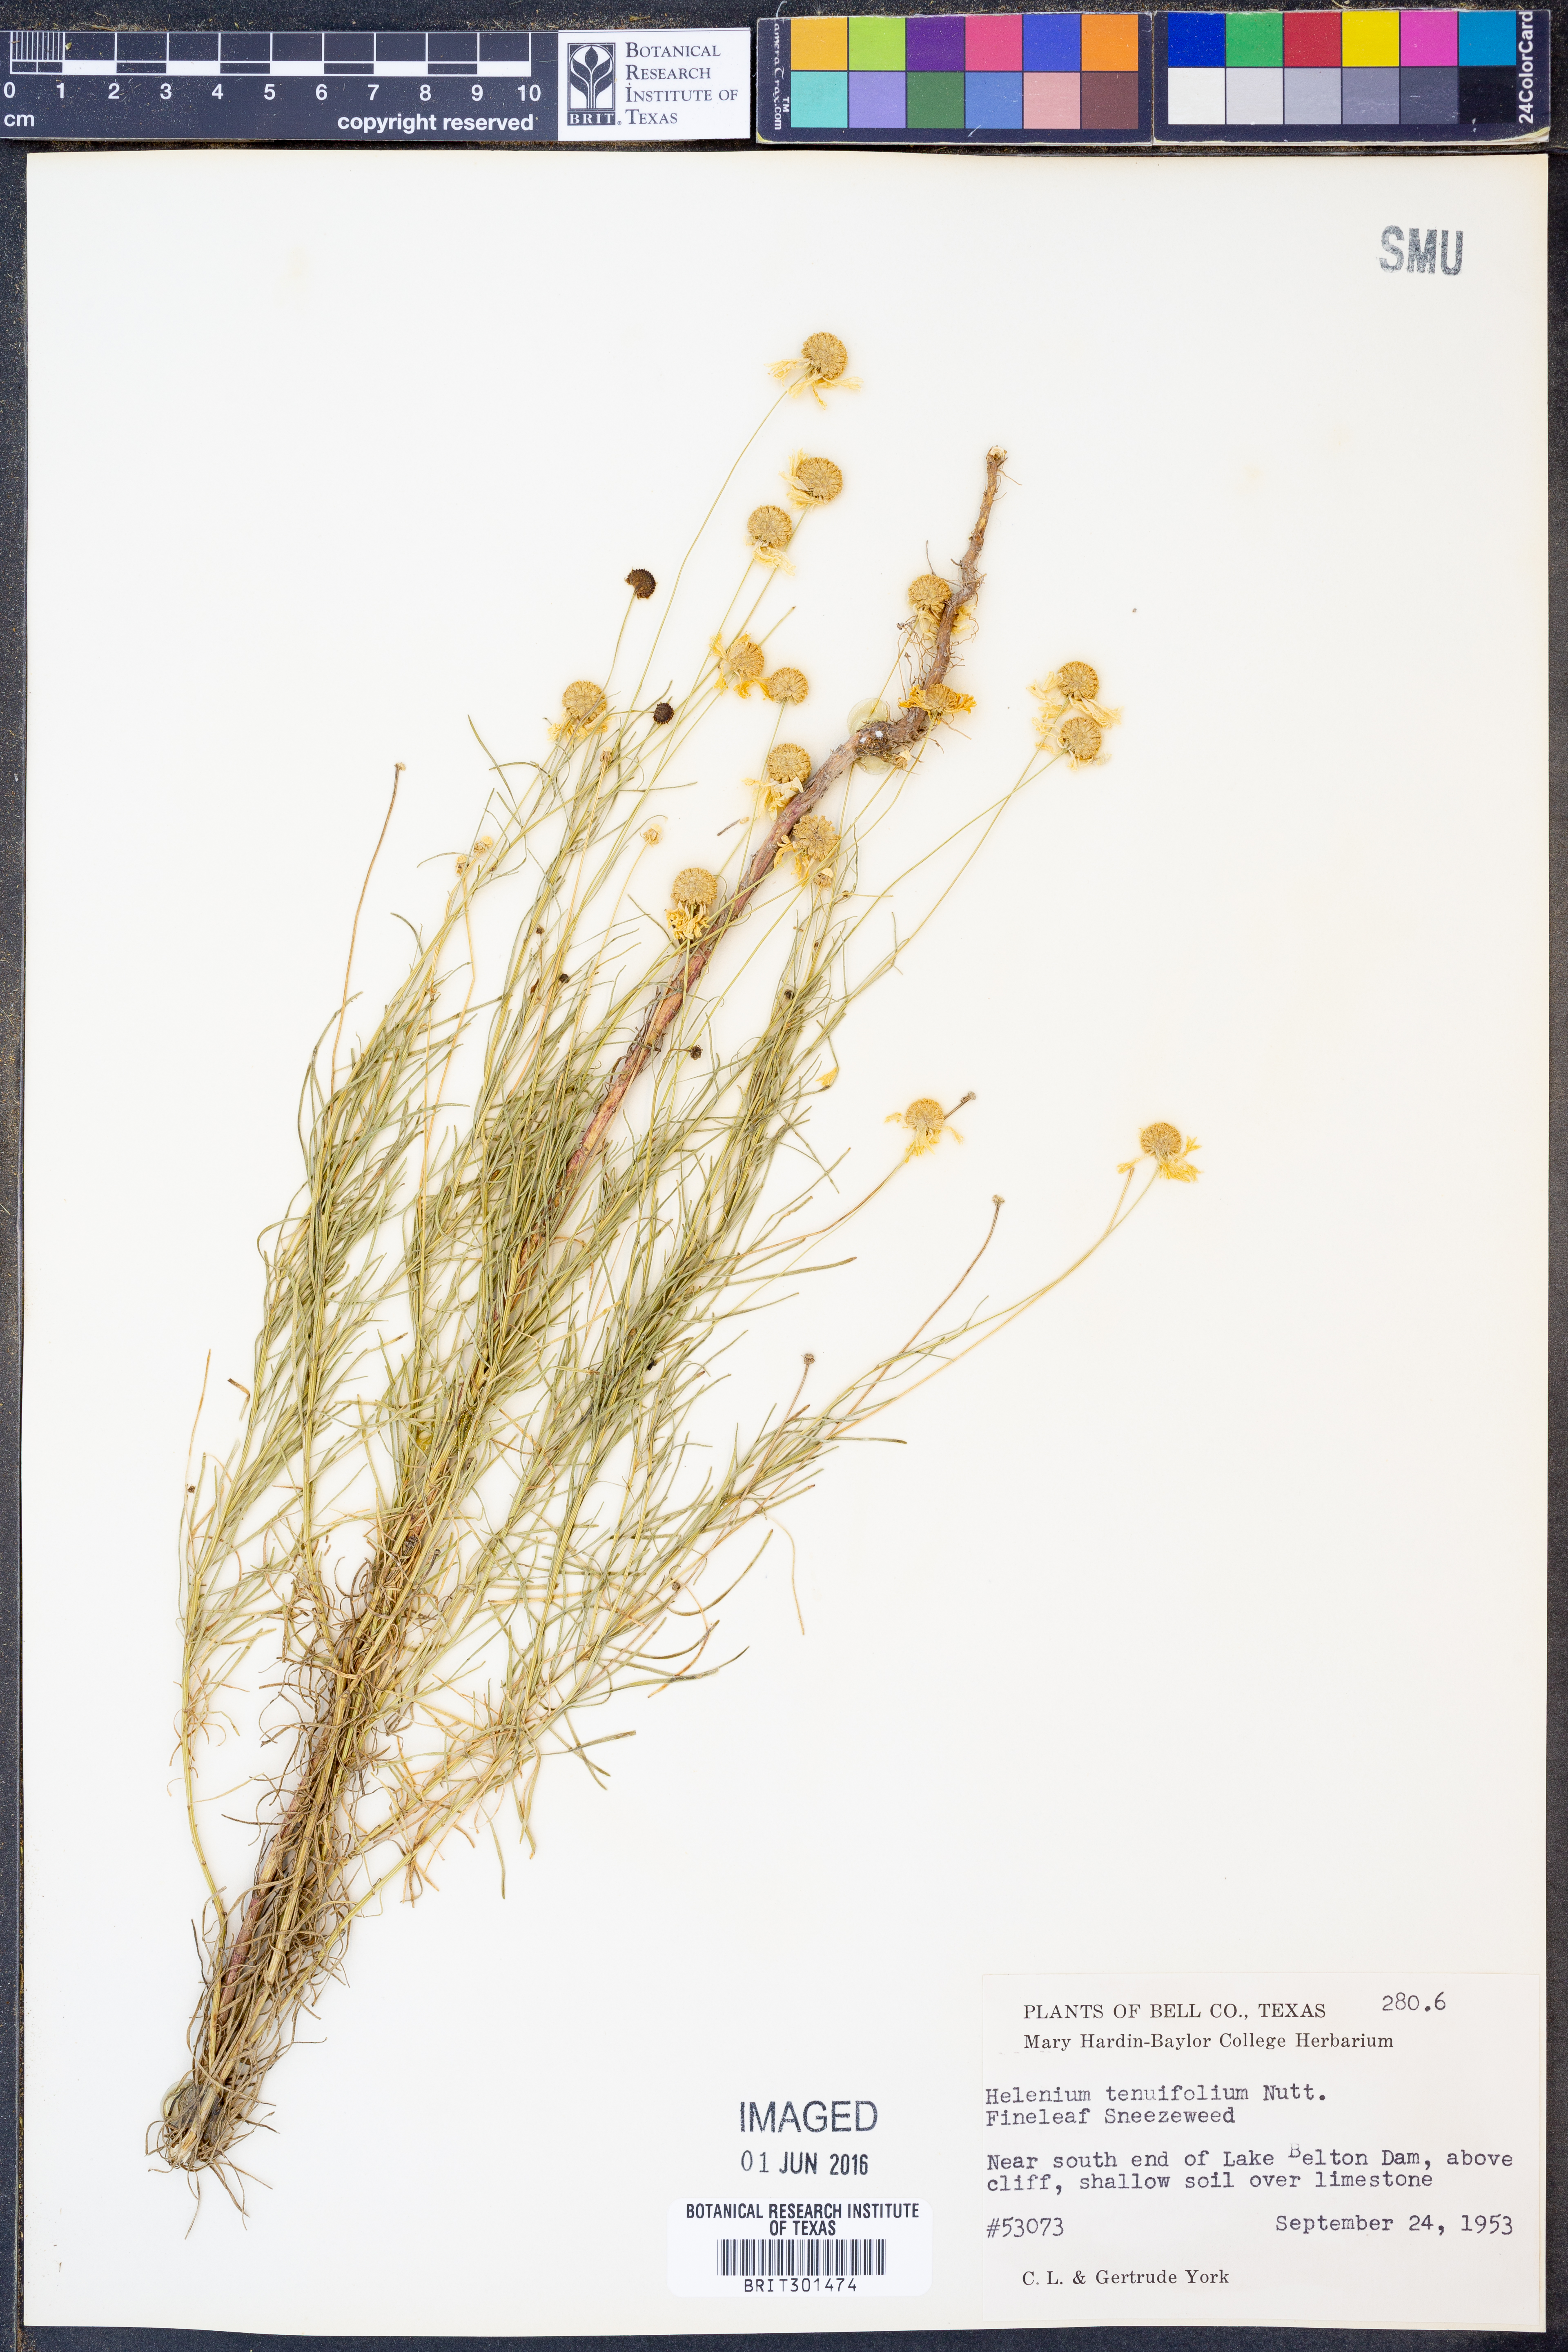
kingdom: Plantae
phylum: Tracheophyta
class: Magnoliopsida
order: Asterales
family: Asteraceae
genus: Helenium
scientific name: Helenium amarum
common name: Bitter sneezeweed
